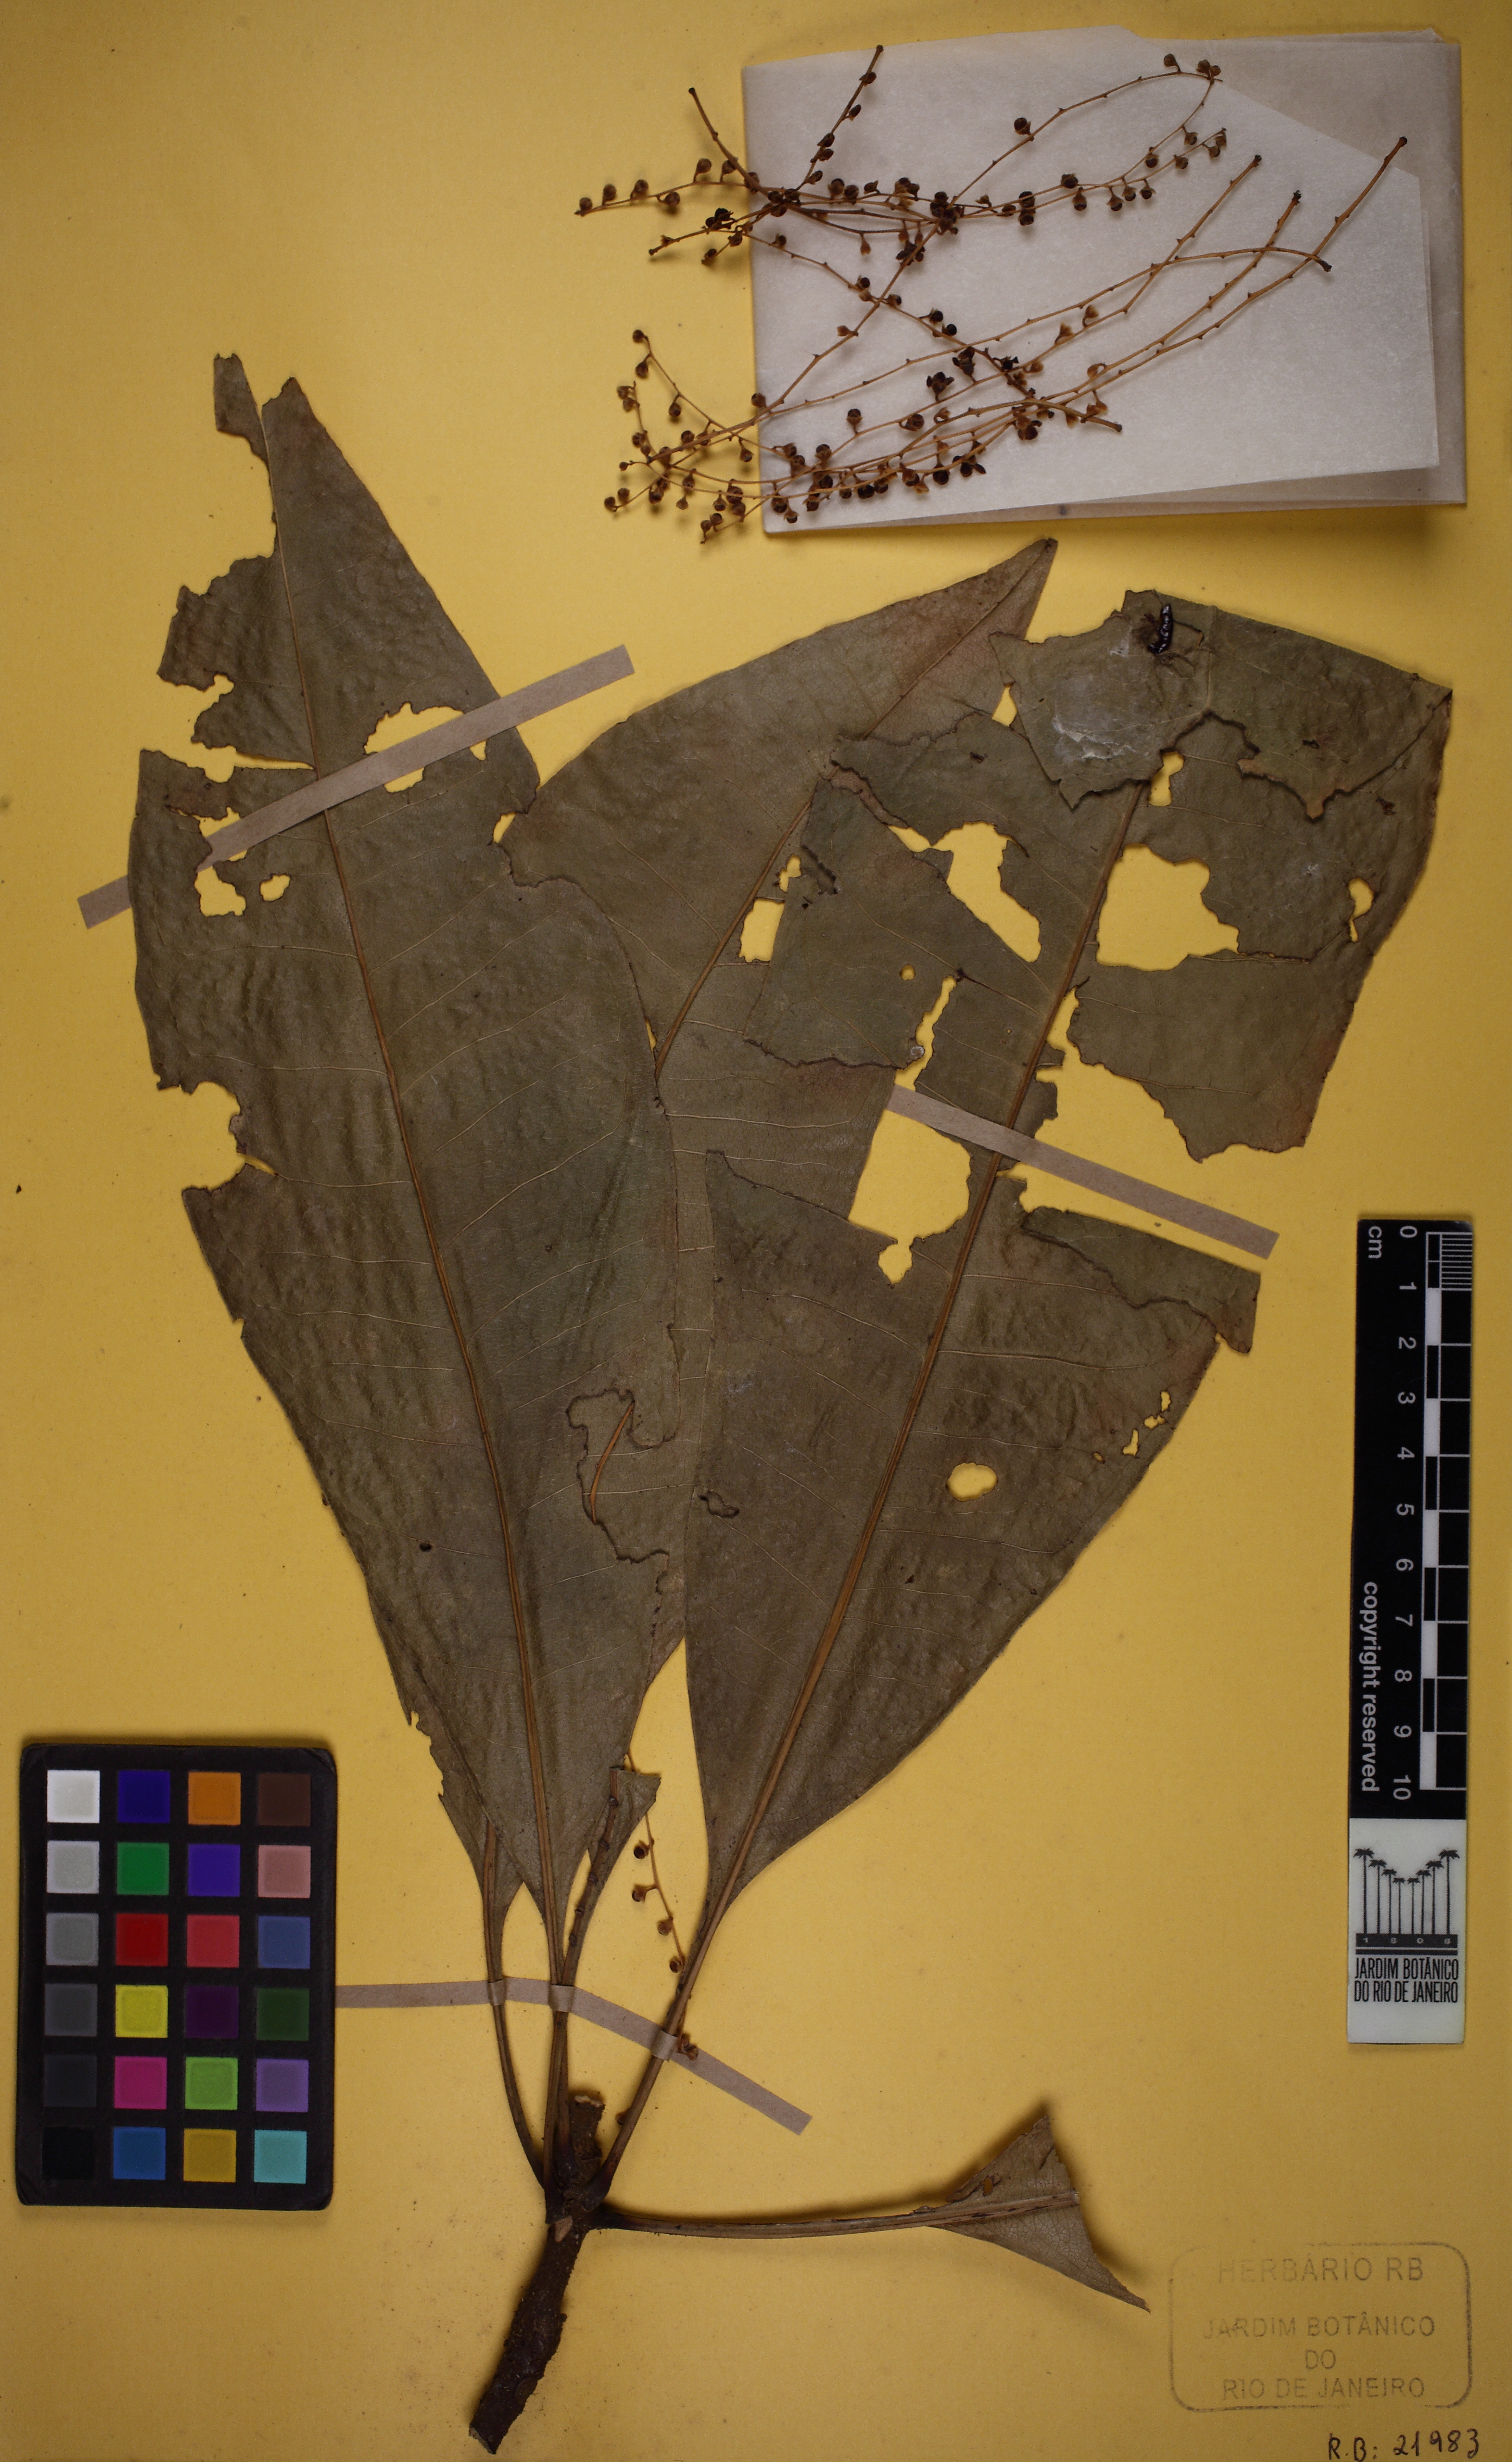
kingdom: Plantae
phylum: Tracheophyta
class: Magnoliopsida
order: Ericales
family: Primulaceae
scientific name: Primulaceae
